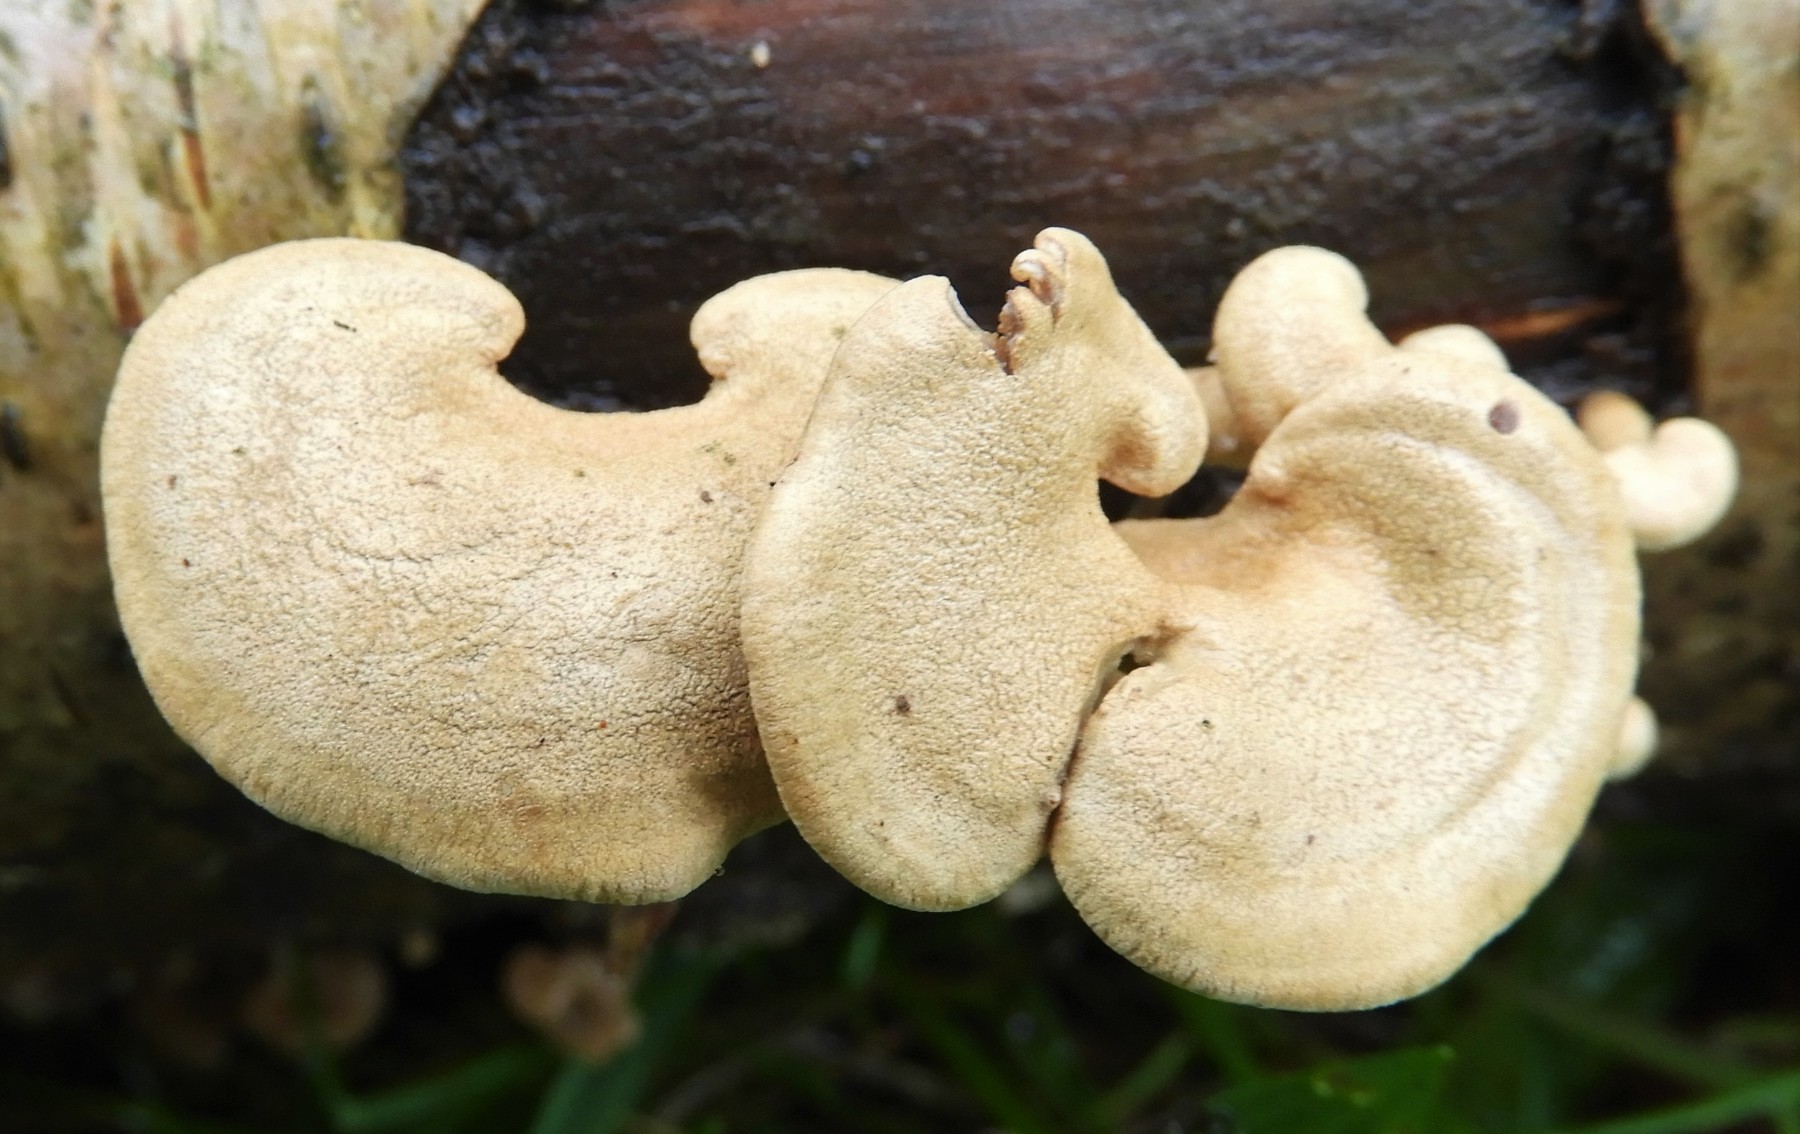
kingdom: Fungi
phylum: Basidiomycota
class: Agaricomycetes
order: Agaricales
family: Mycenaceae
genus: Panellus
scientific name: Panellus stipticus
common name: kliddet epaulethat
